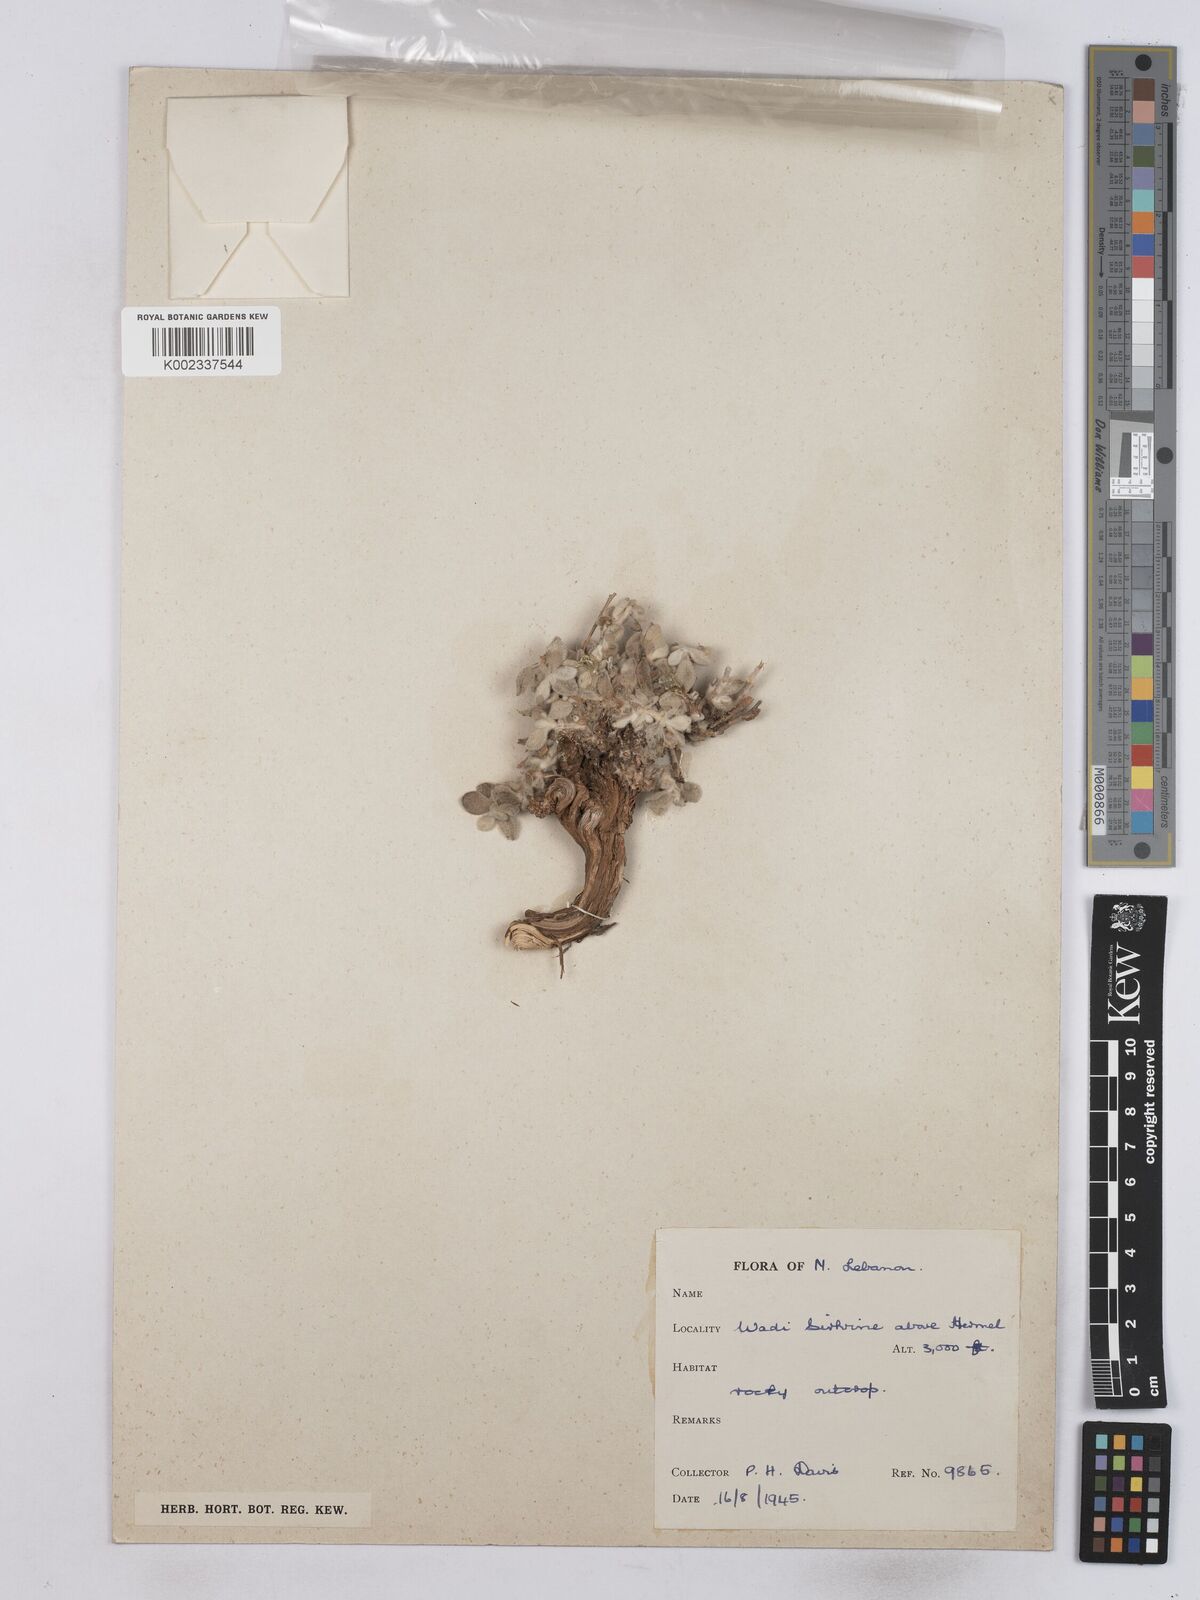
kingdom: Plantae
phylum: Tracheophyta
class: Magnoliopsida
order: Asterales
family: Asteraceae
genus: Achillea
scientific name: Achillea maritima
